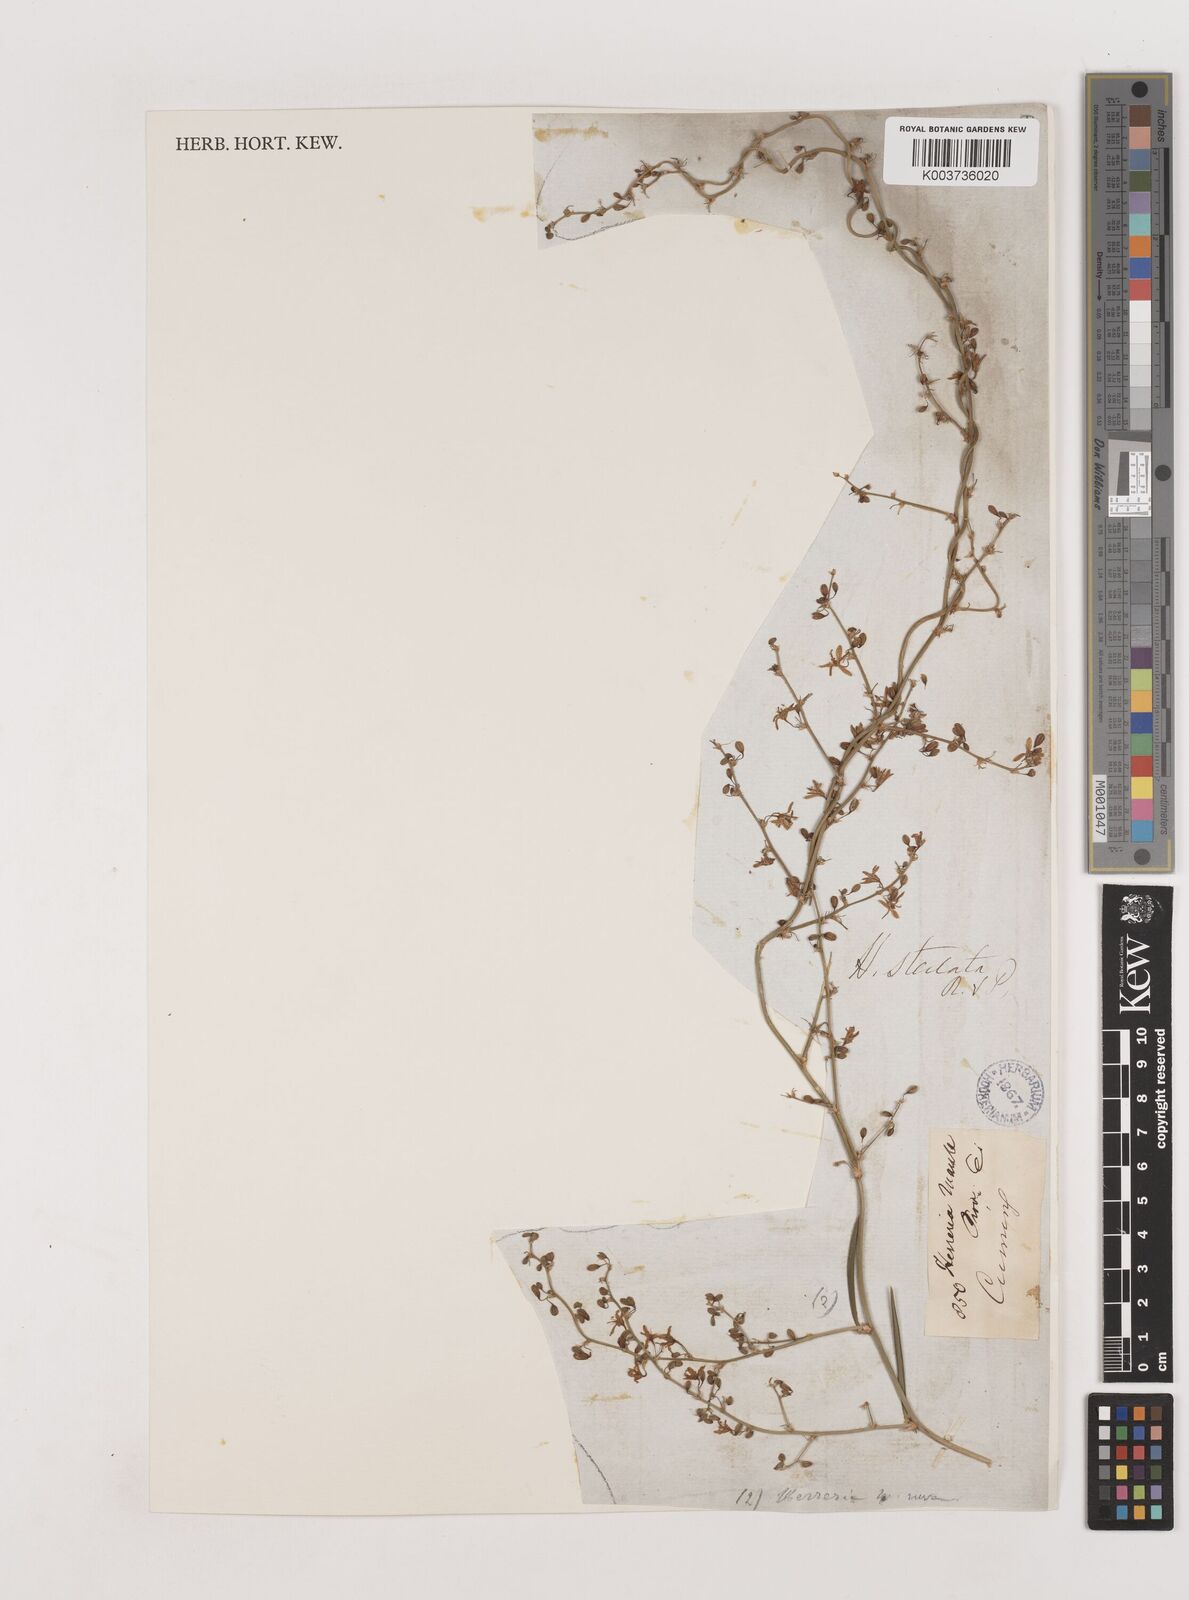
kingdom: Plantae
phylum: Tracheophyta
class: Liliopsida
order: Asparagales
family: Asparagaceae
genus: Herreria
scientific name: Herreria stellata
